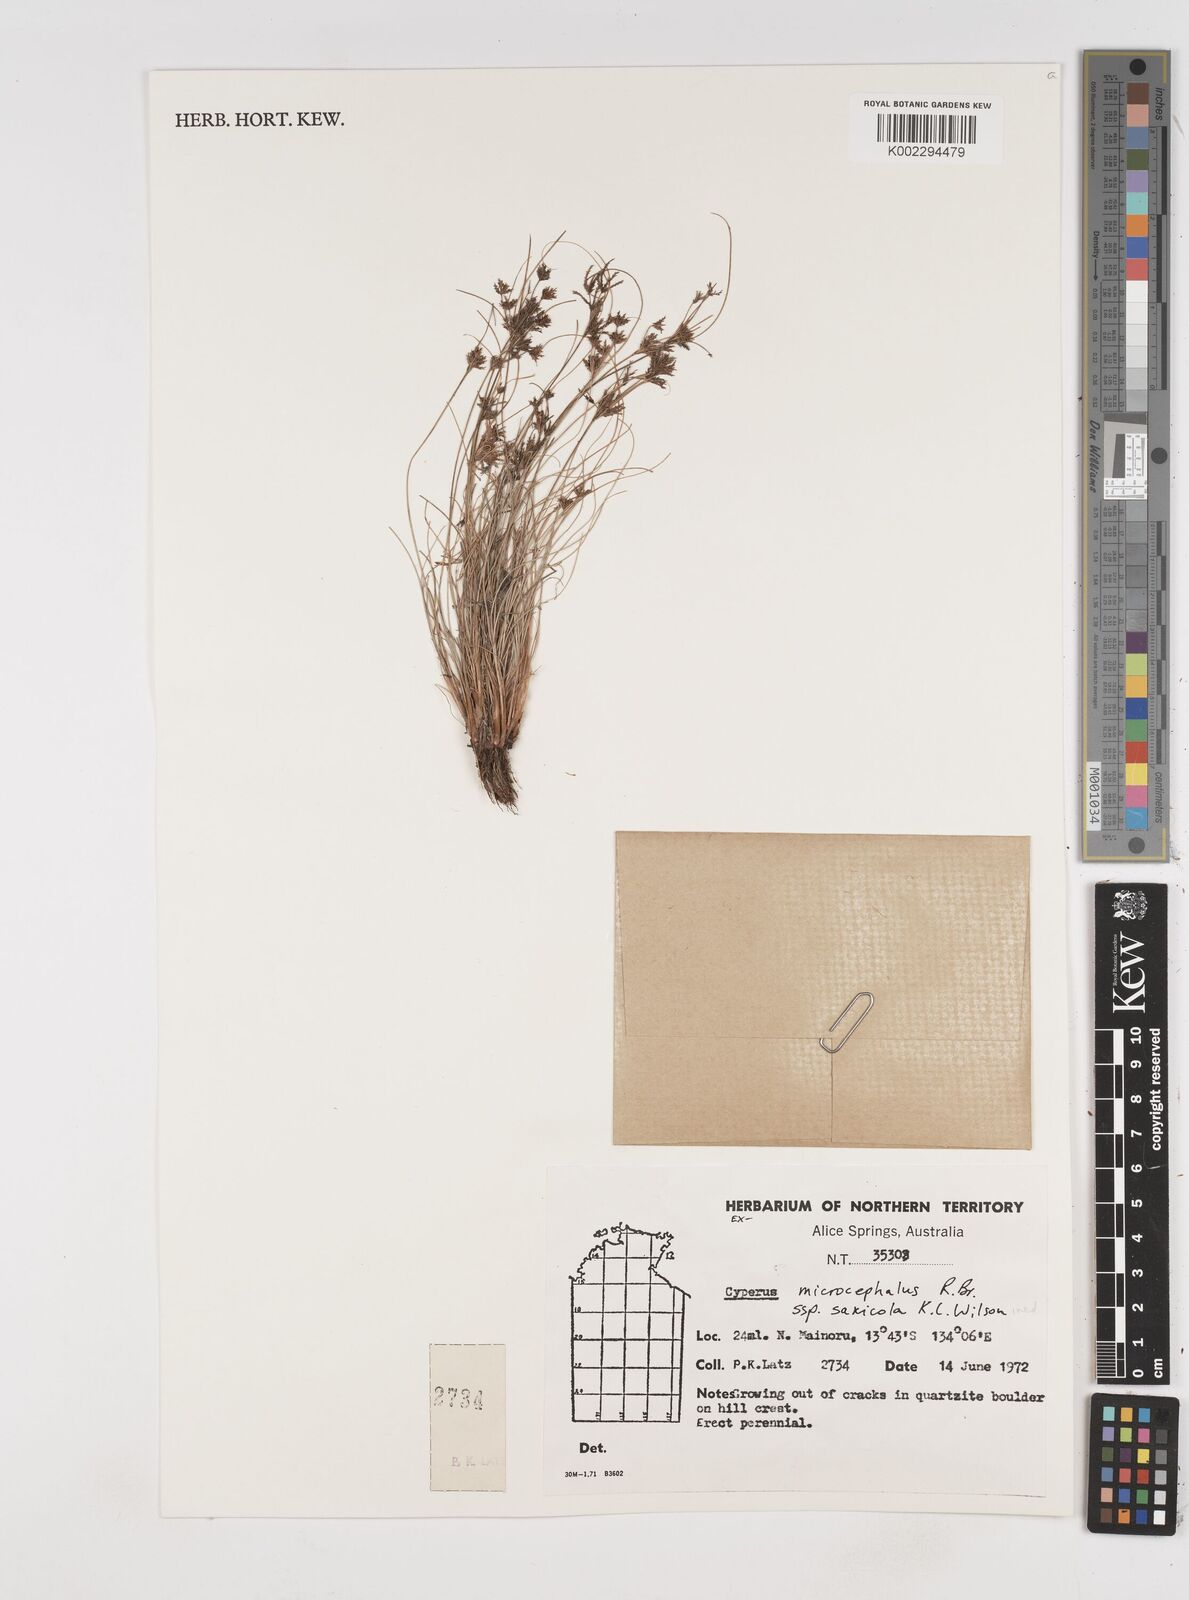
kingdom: Plantae
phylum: Tracheophyta
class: Liliopsida
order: Poales
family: Cyperaceae
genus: Cyperus
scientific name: Cyperus microcephalus
